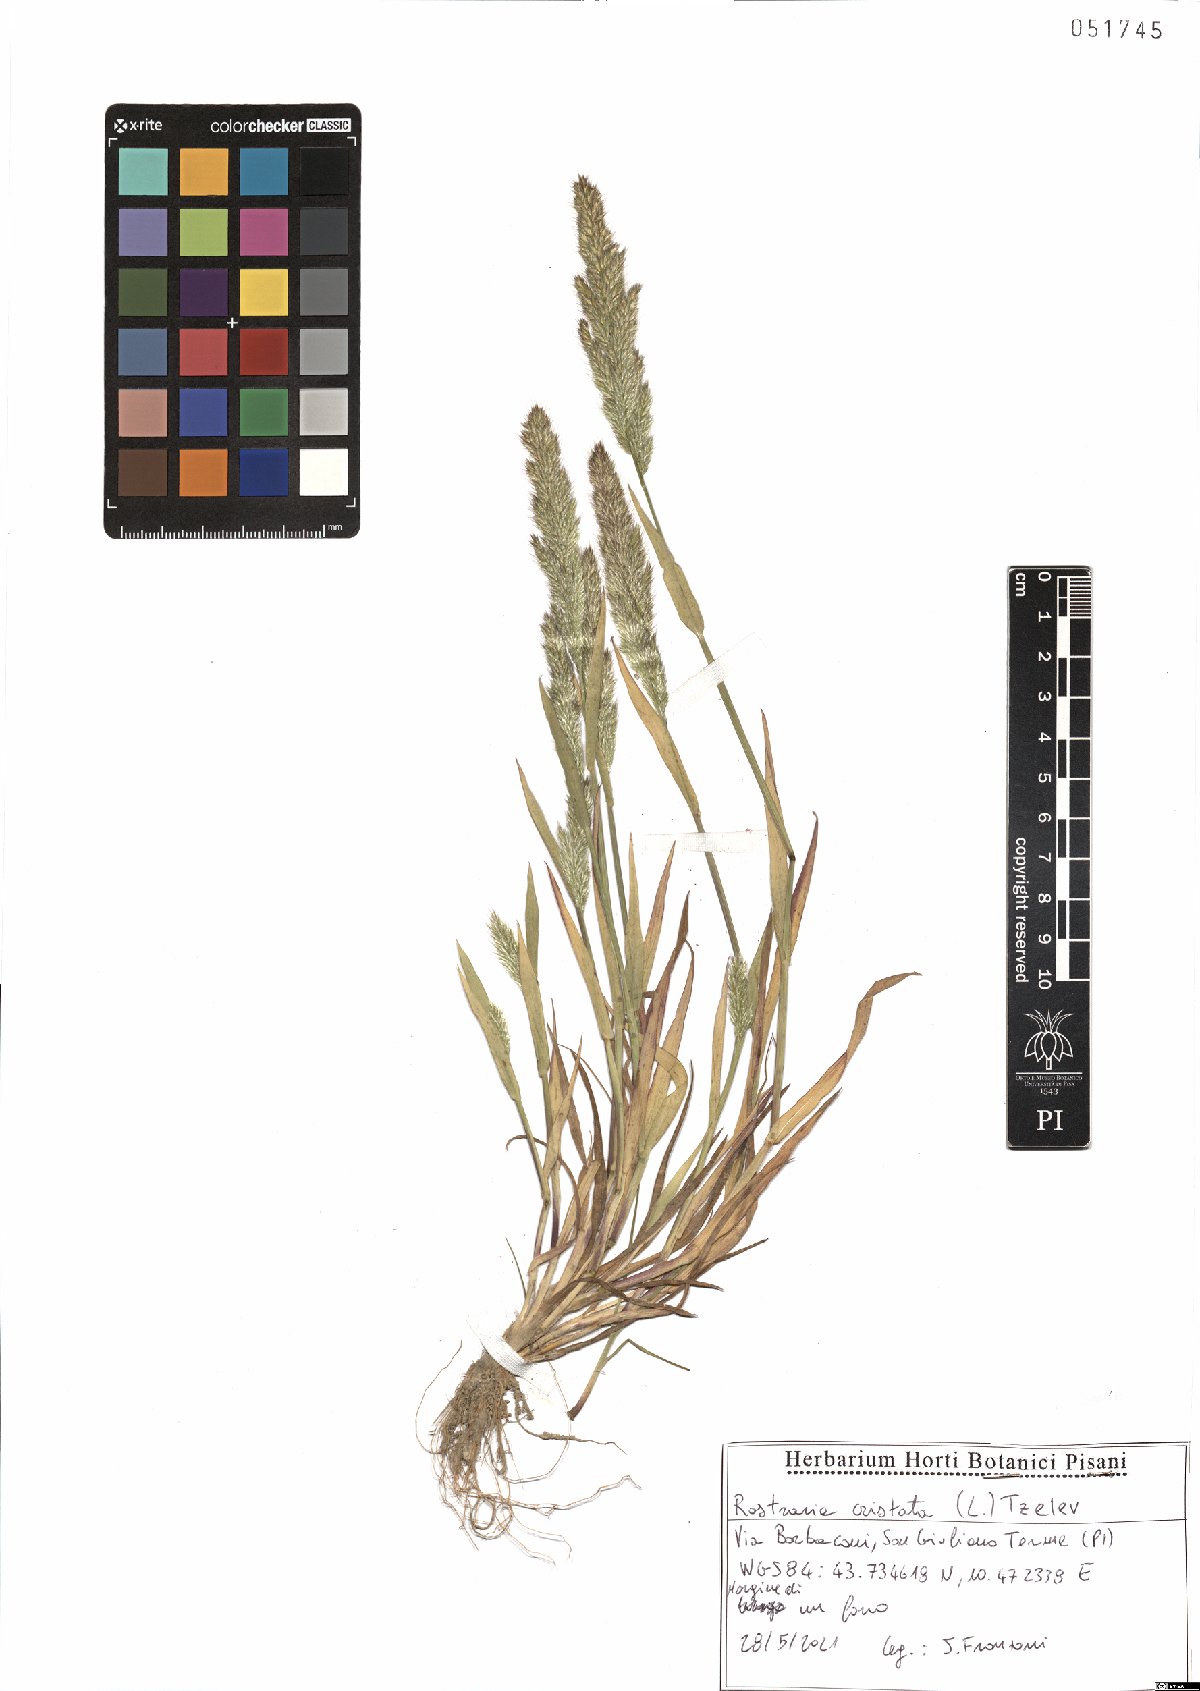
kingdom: Plantae
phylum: Tracheophyta
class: Liliopsida
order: Poales
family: Poaceae
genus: Rostraria
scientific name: Rostraria cristata
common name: Mediterranean hair-grass
